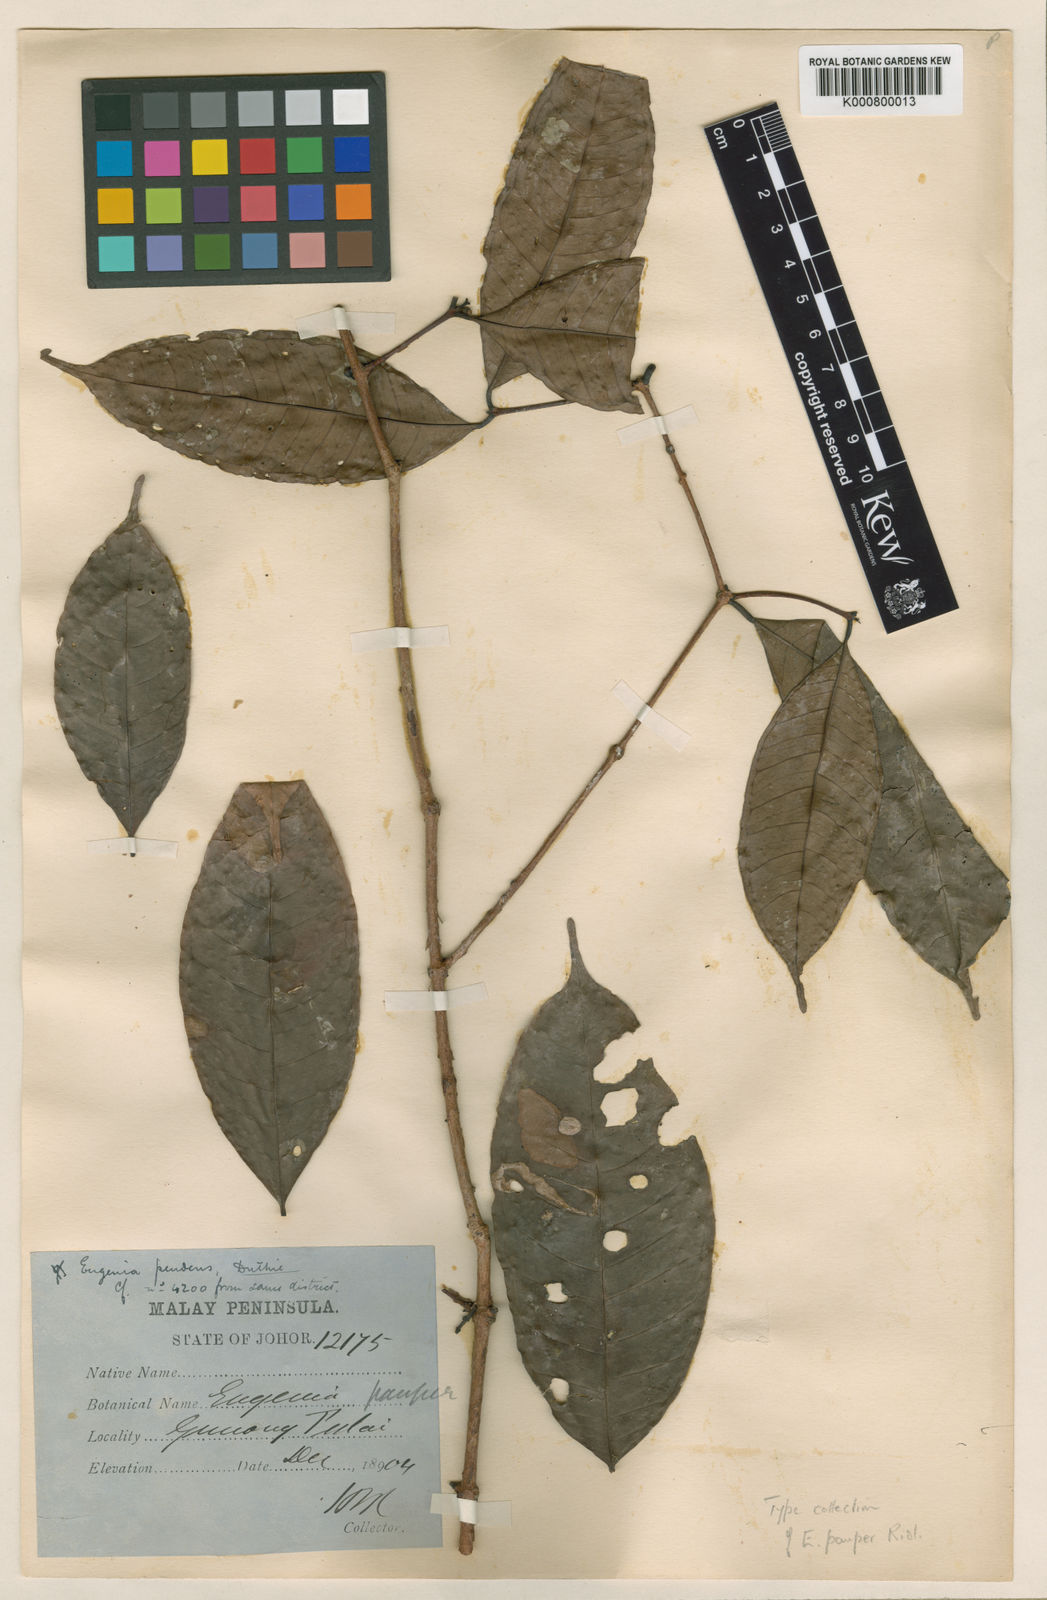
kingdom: Plantae
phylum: Tracheophyta
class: Magnoliopsida
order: Myrtales
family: Myrtaceae
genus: Syzygium
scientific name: Syzygium pauper
